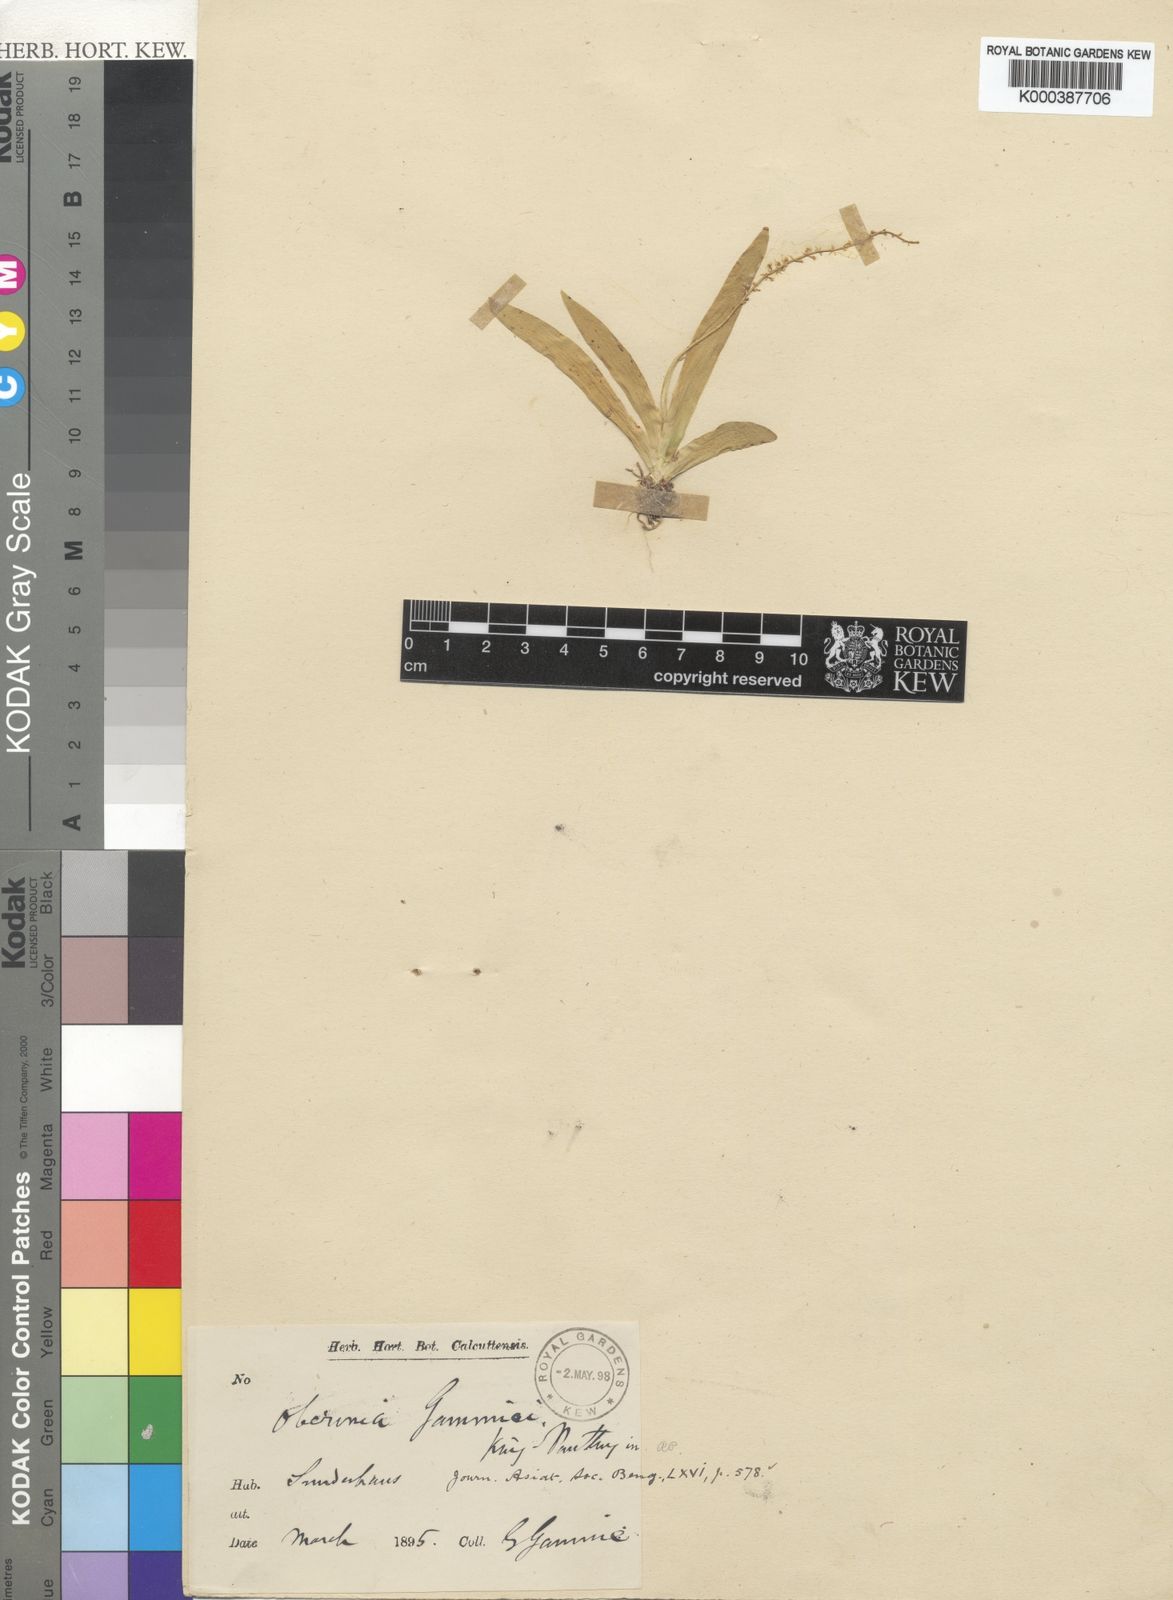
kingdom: Plantae
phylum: Tracheophyta
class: Liliopsida
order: Asparagales
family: Orchidaceae
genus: Oberonia
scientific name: Oberonia gammiei
